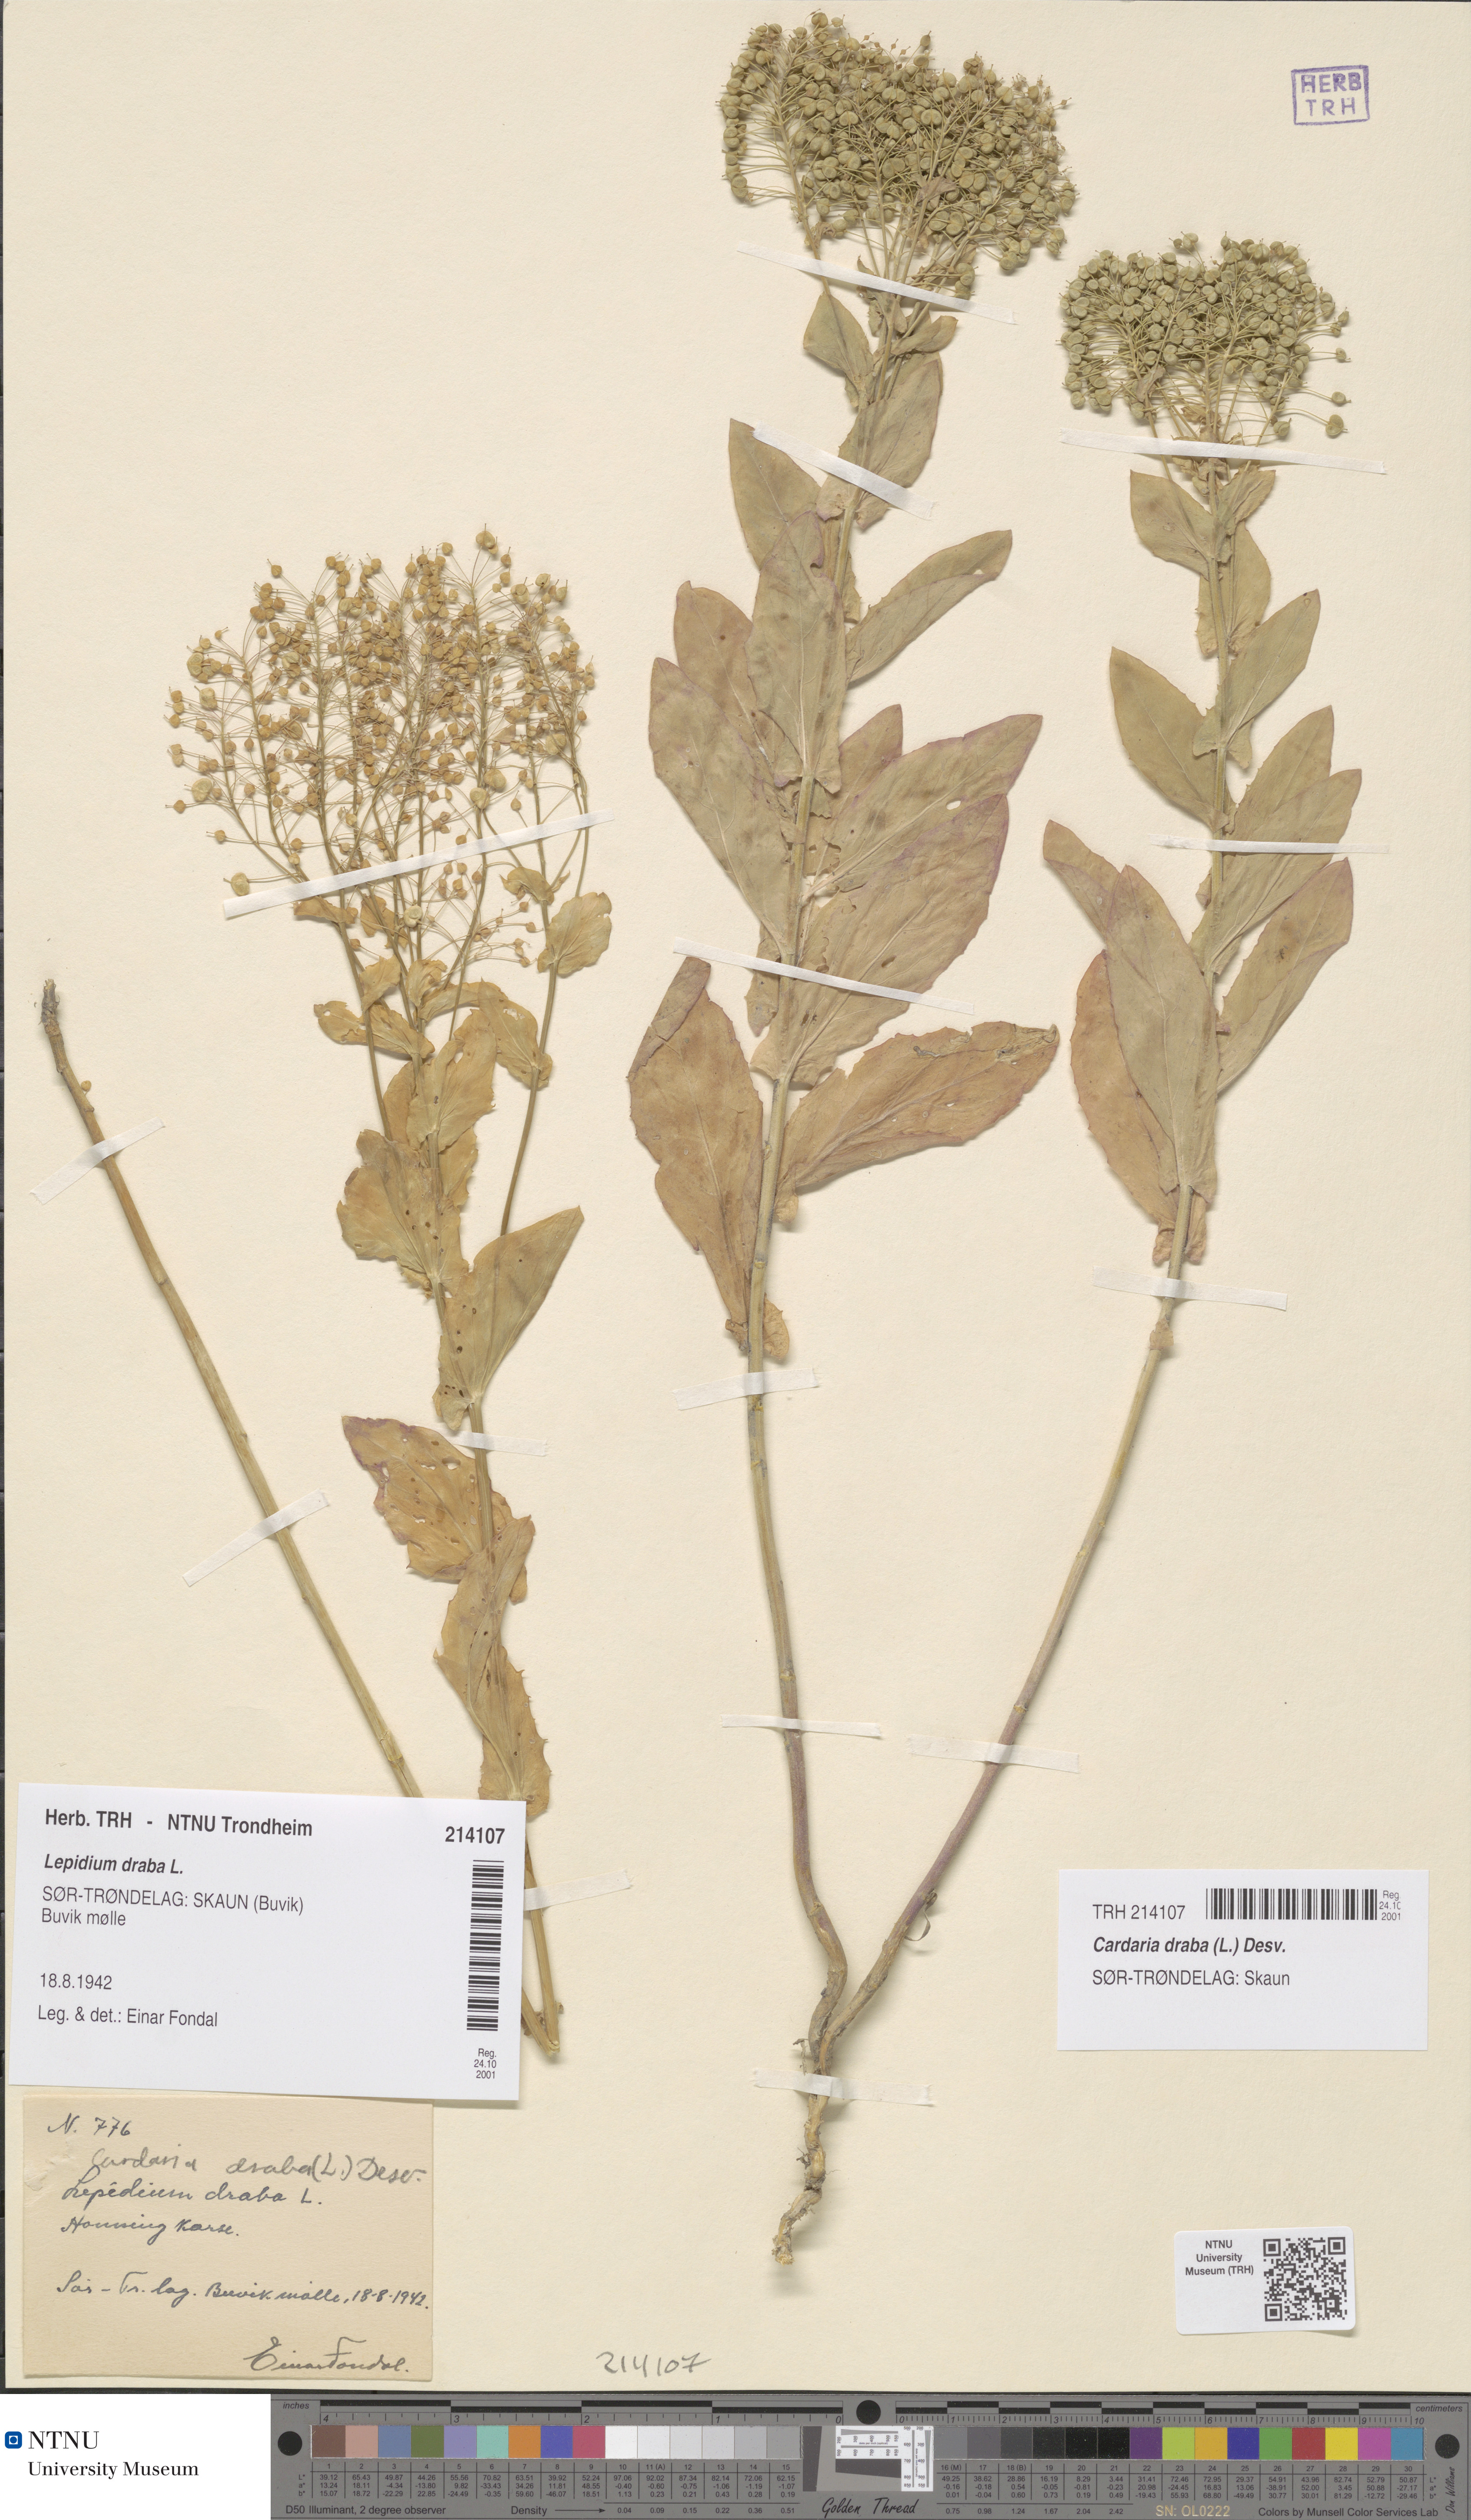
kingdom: Plantae
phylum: Tracheophyta
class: Magnoliopsida
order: Brassicales
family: Brassicaceae
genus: Lepidium
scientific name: Lepidium draba
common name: Hoary cress
